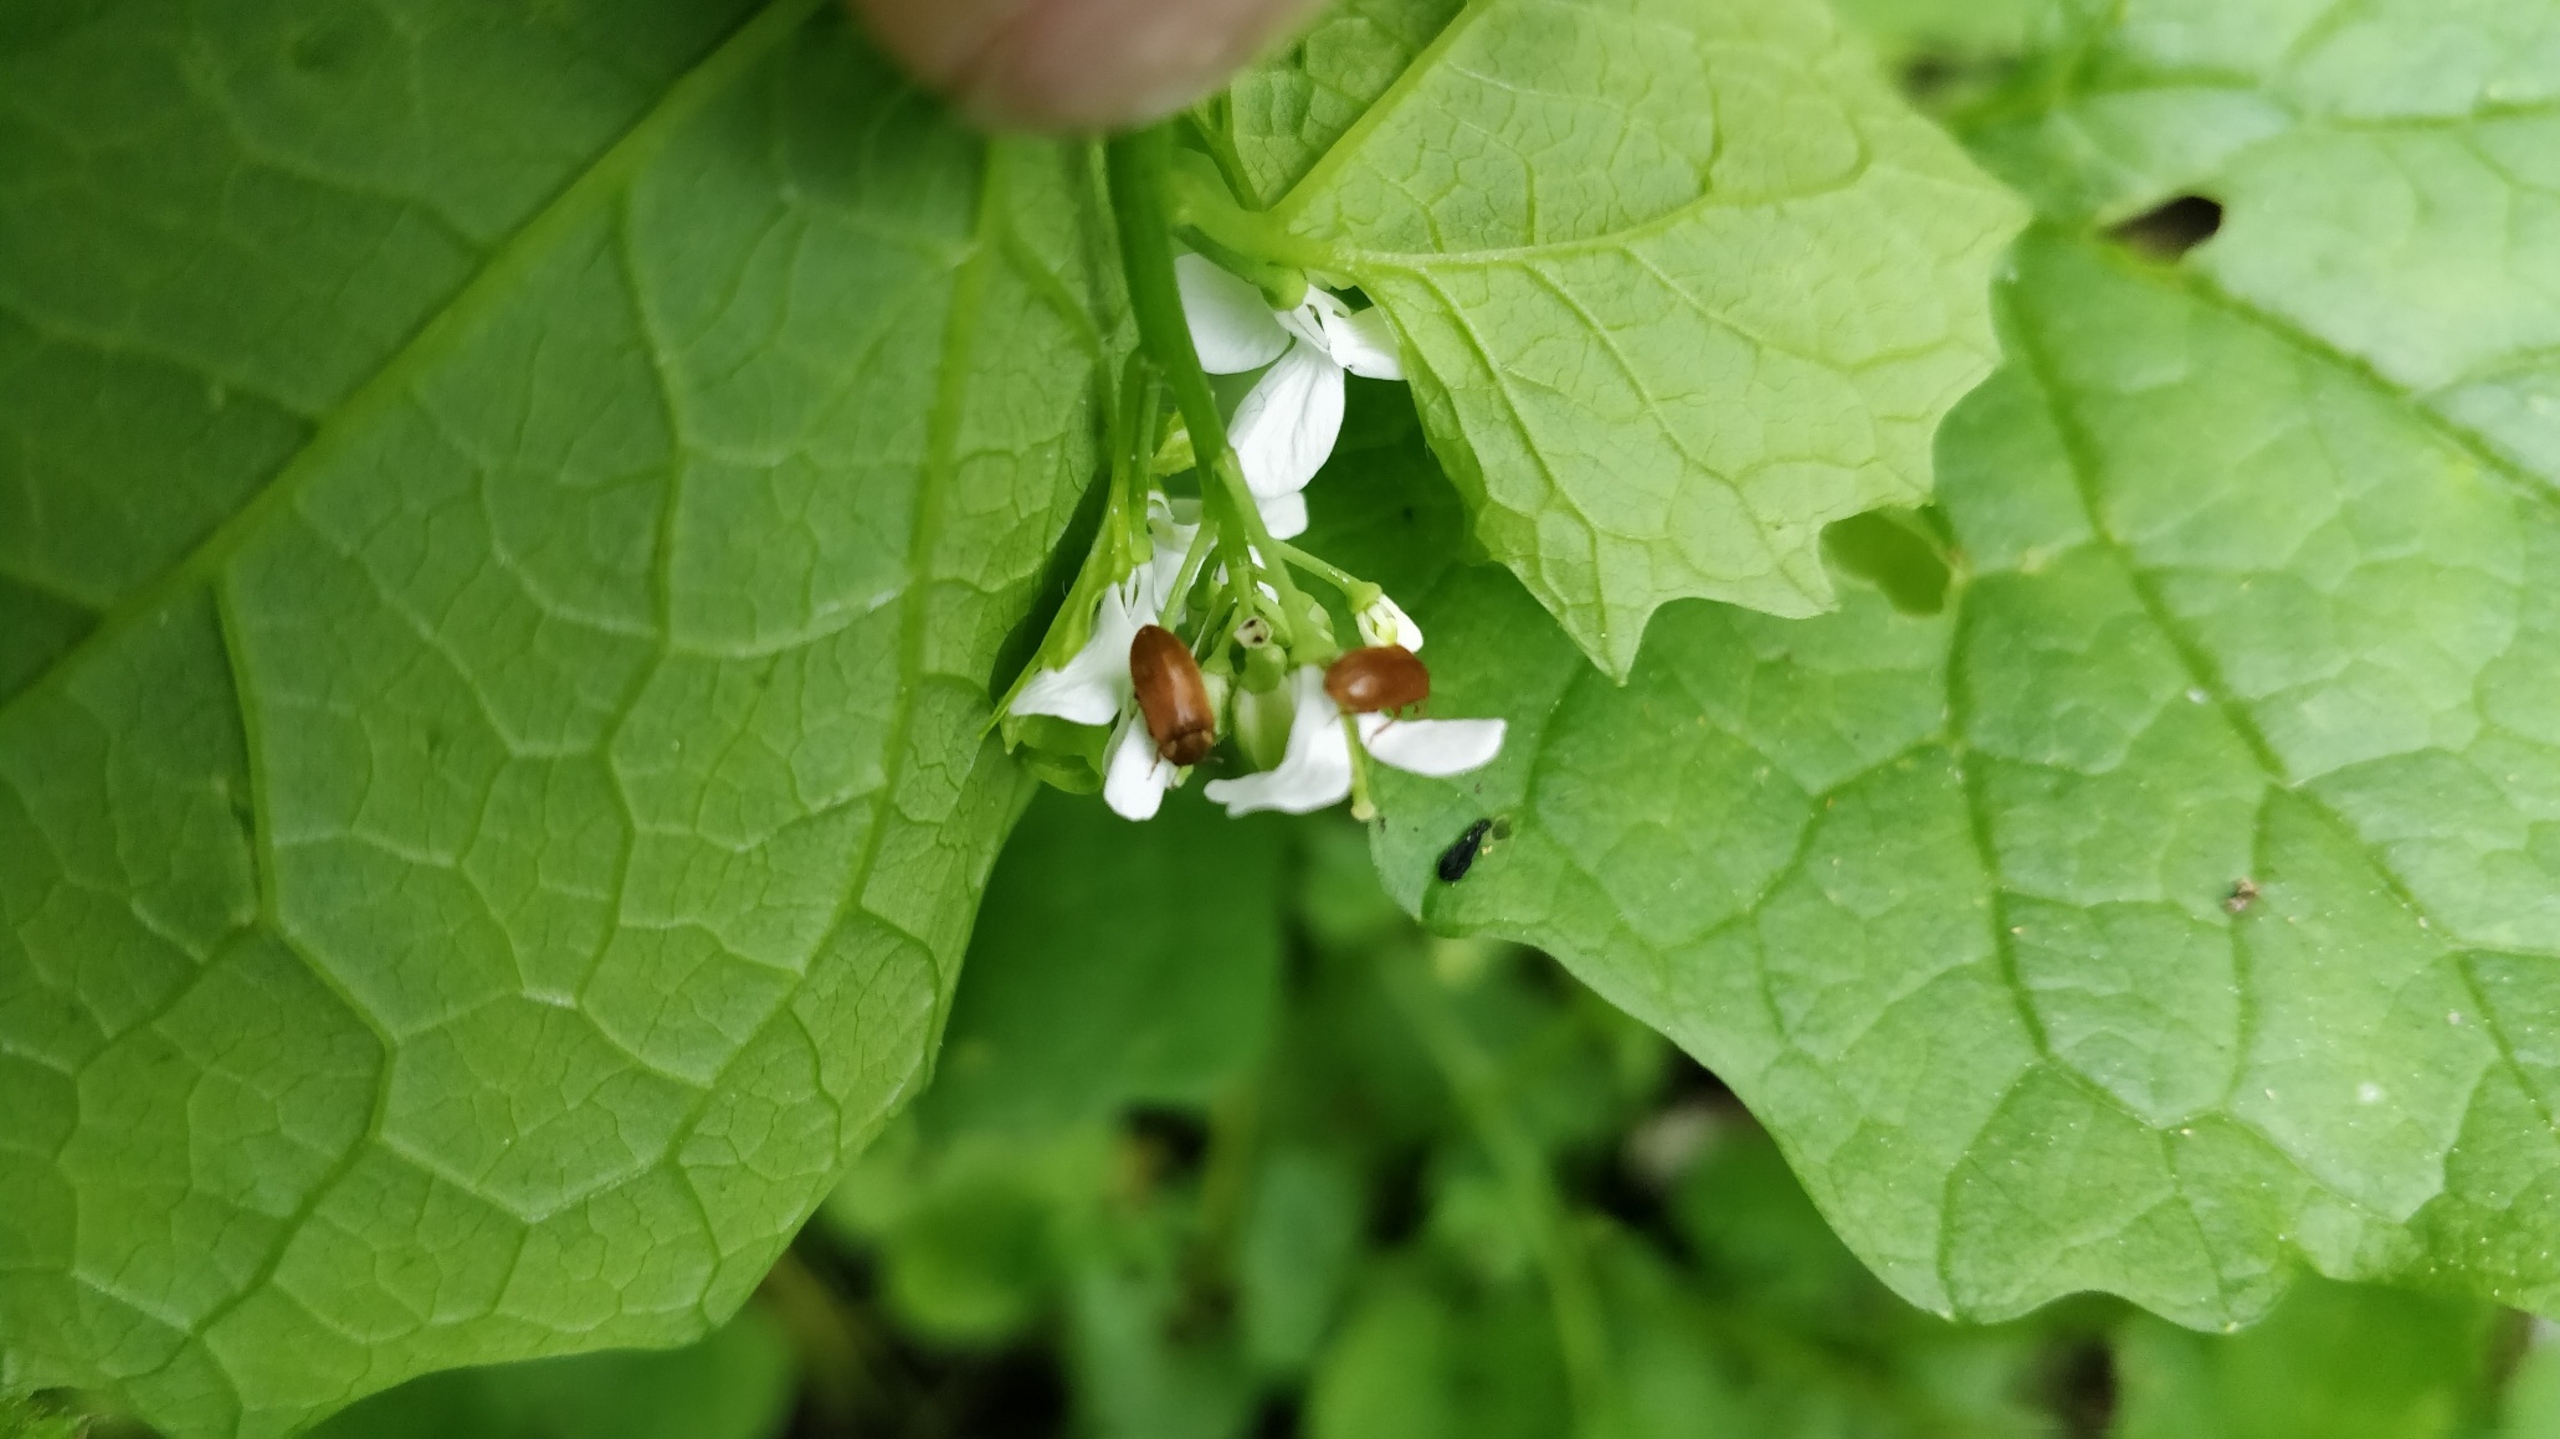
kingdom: Plantae
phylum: Tracheophyta
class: Magnoliopsida
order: Brassicales
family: Brassicaceae
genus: Alliaria
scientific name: Alliaria petiolata
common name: Løgkarse
